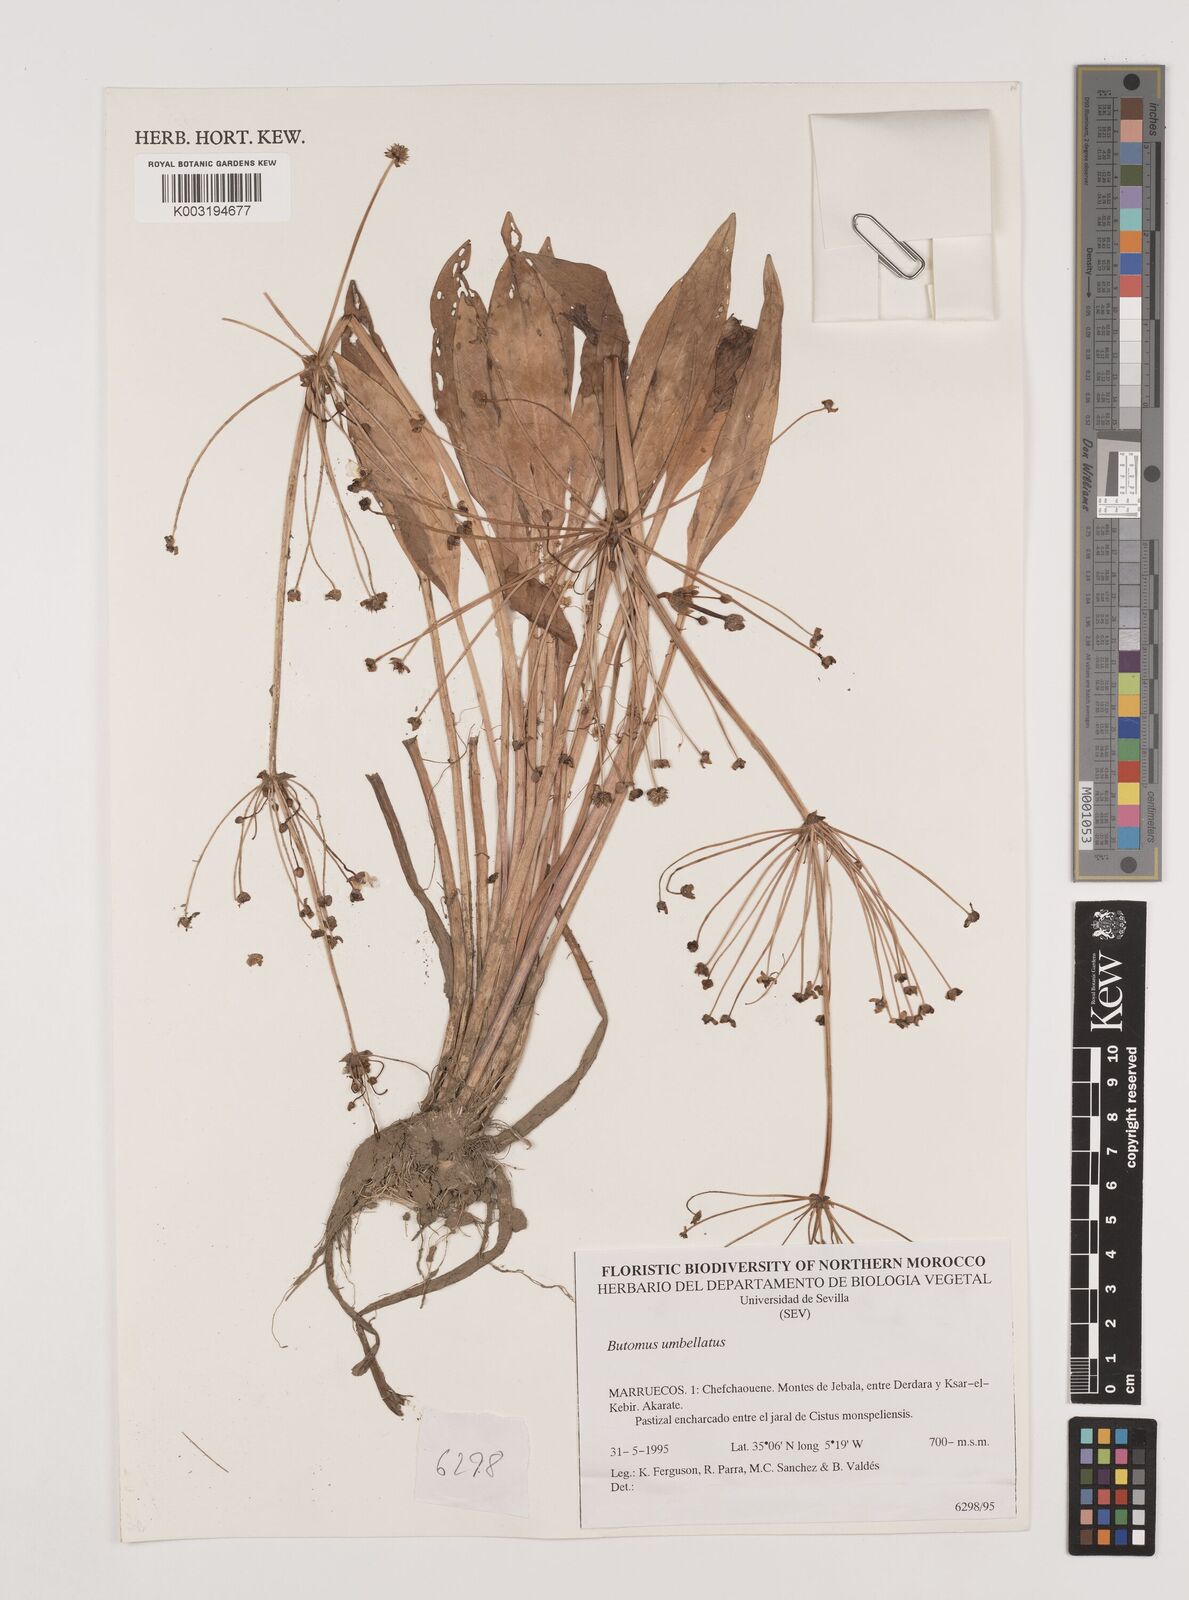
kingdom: Plantae
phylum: Tracheophyta
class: Liliopsida
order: Alismatales
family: Butomaceae
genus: Butomus
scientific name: Butomus umbellatus
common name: Flowering-rush
